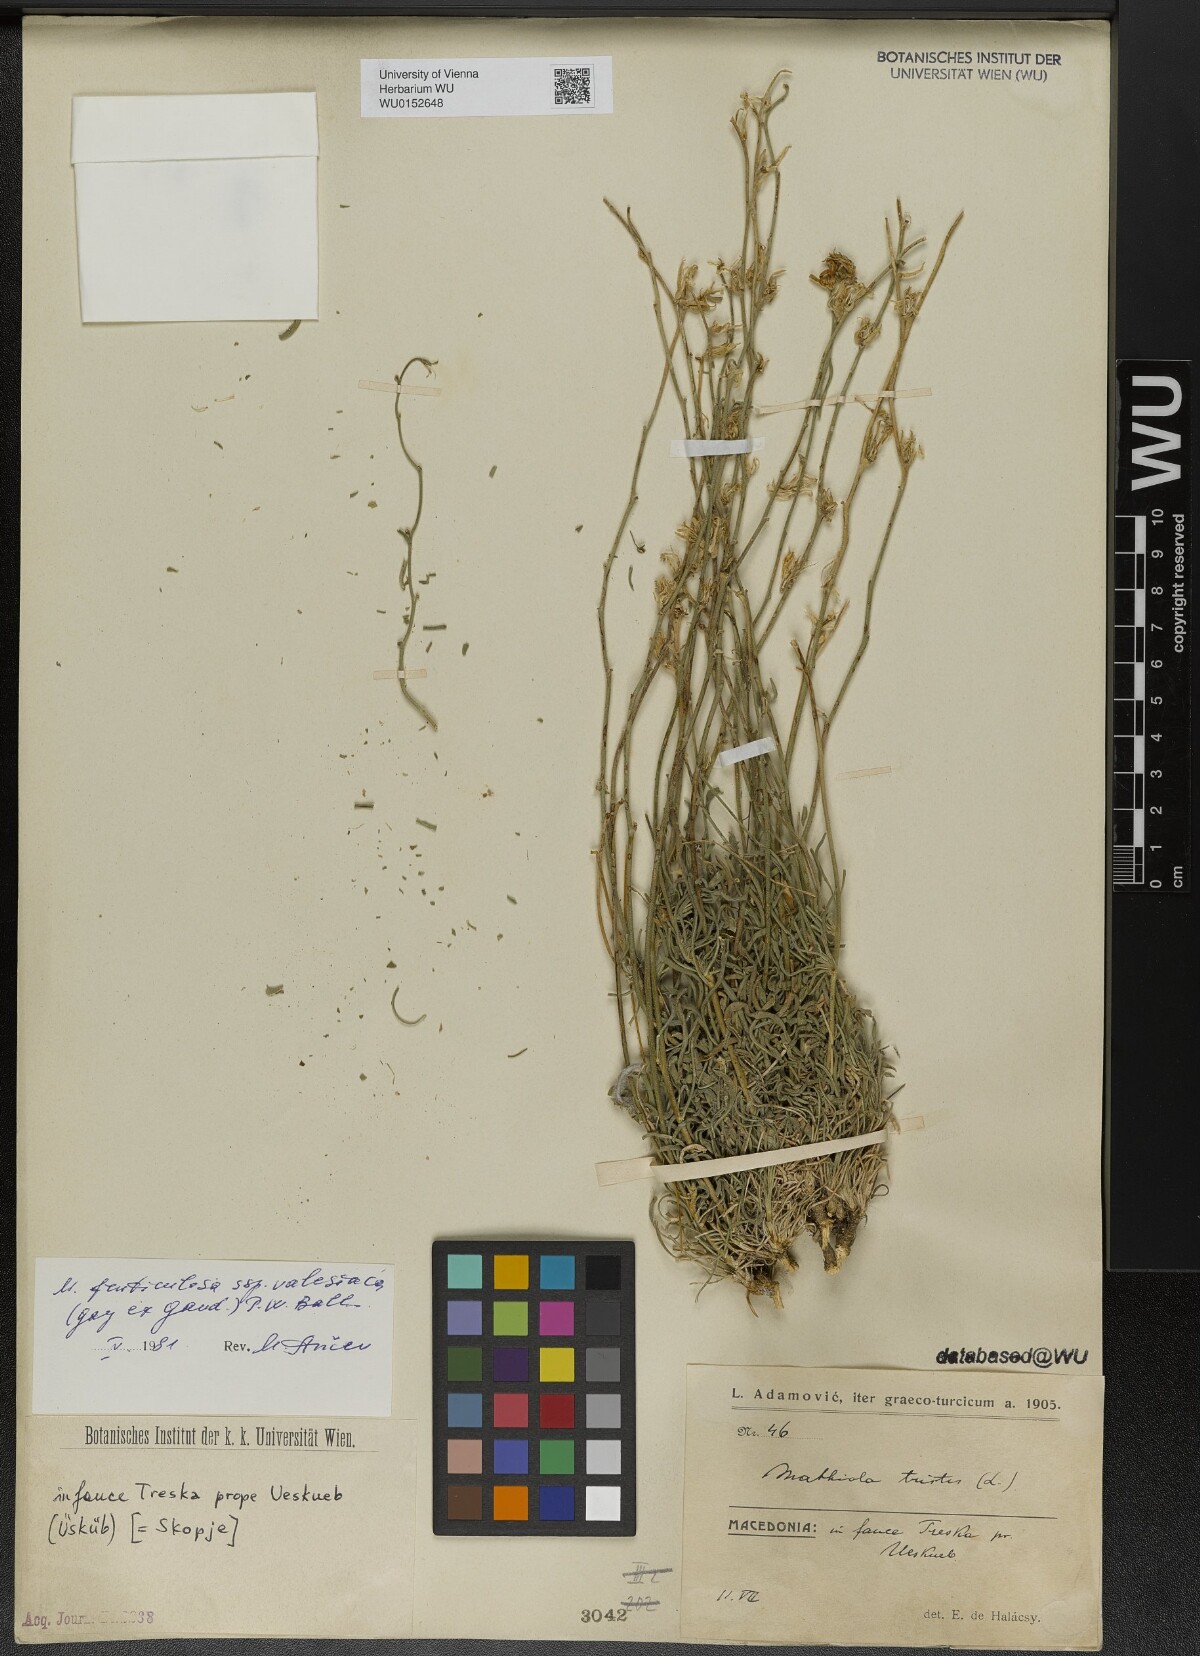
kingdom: Plantae
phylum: Tracheophyta
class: Magnoliopsida
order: Brassicales
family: Brassicaceae
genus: Matthiola
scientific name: Matthiola fruticulosa
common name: Sad stock
